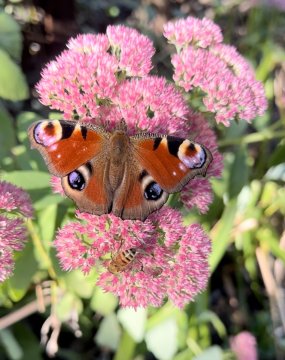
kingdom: Animalia
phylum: Arthropoda
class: Insecta
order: Lepidoptera
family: Nymphalidae
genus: Aglais
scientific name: Aglais io
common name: European Peacock
